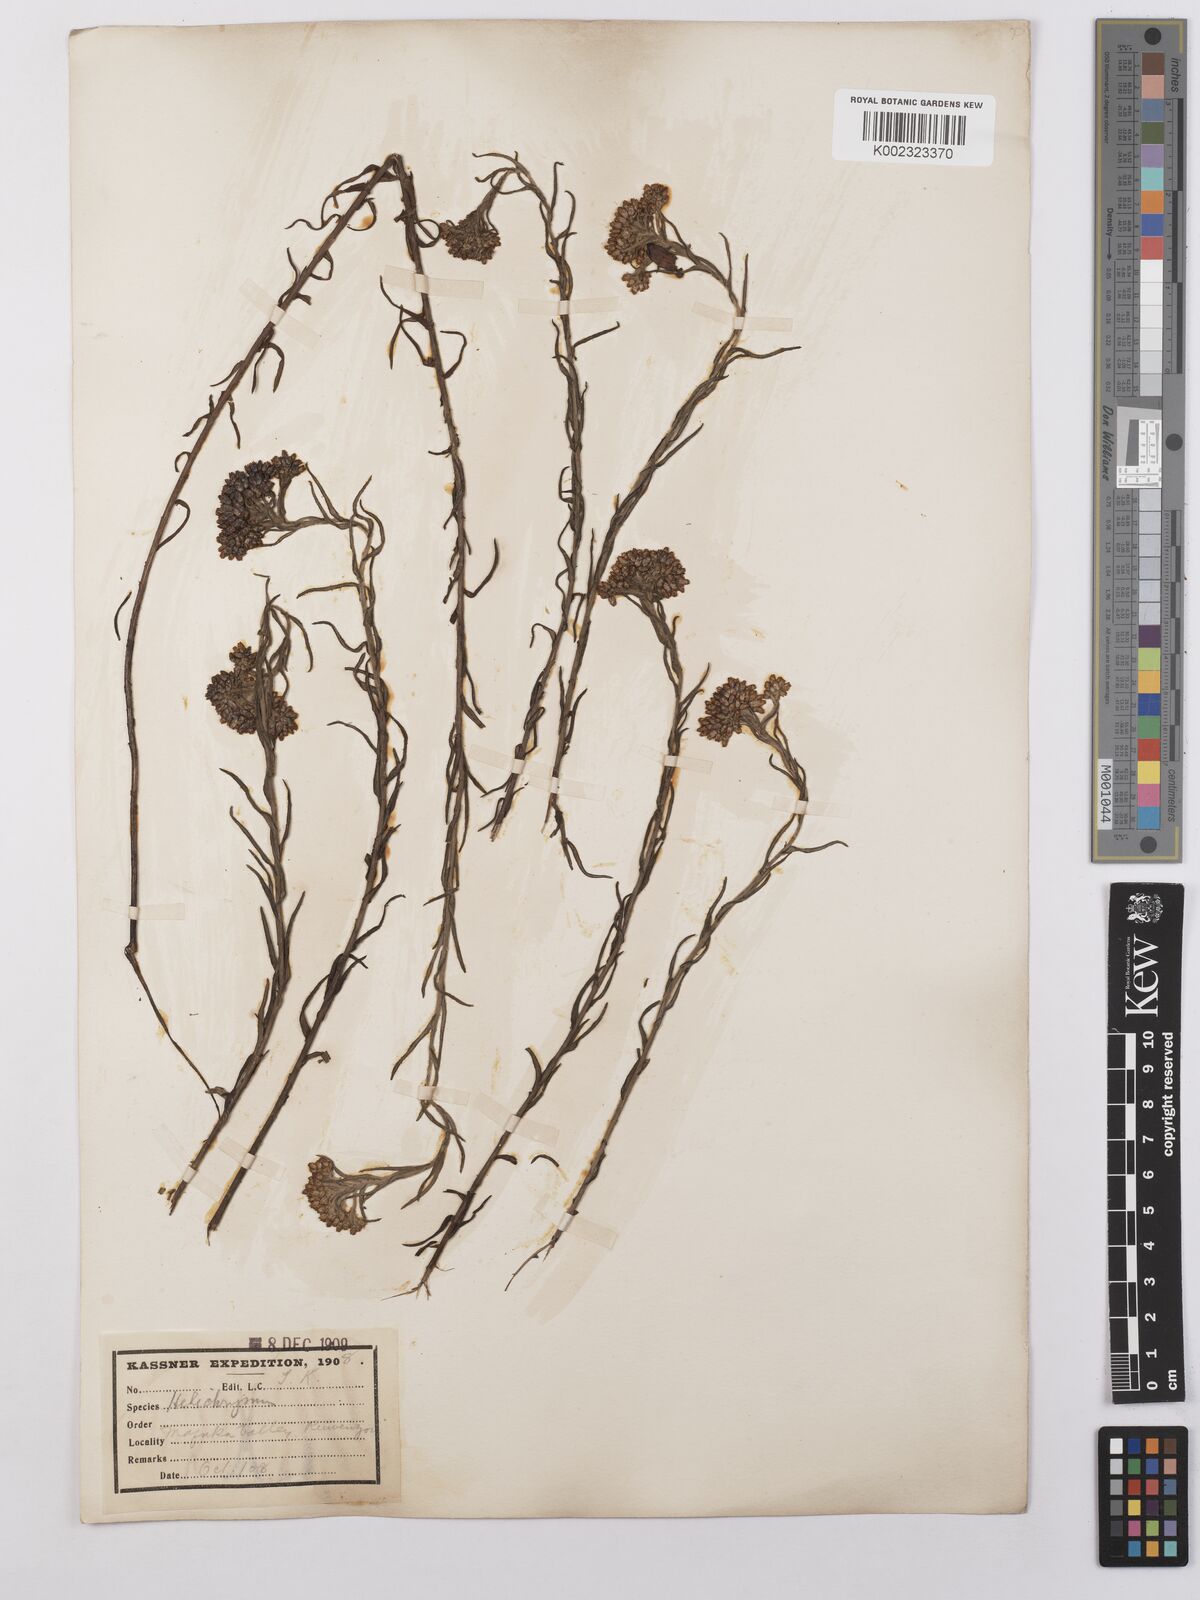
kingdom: Plantae
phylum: Tracheophyta
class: Magnoliopsida
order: Asterales
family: Asteraceae
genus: Helichrysum
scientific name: Helichrysum forskahlii
